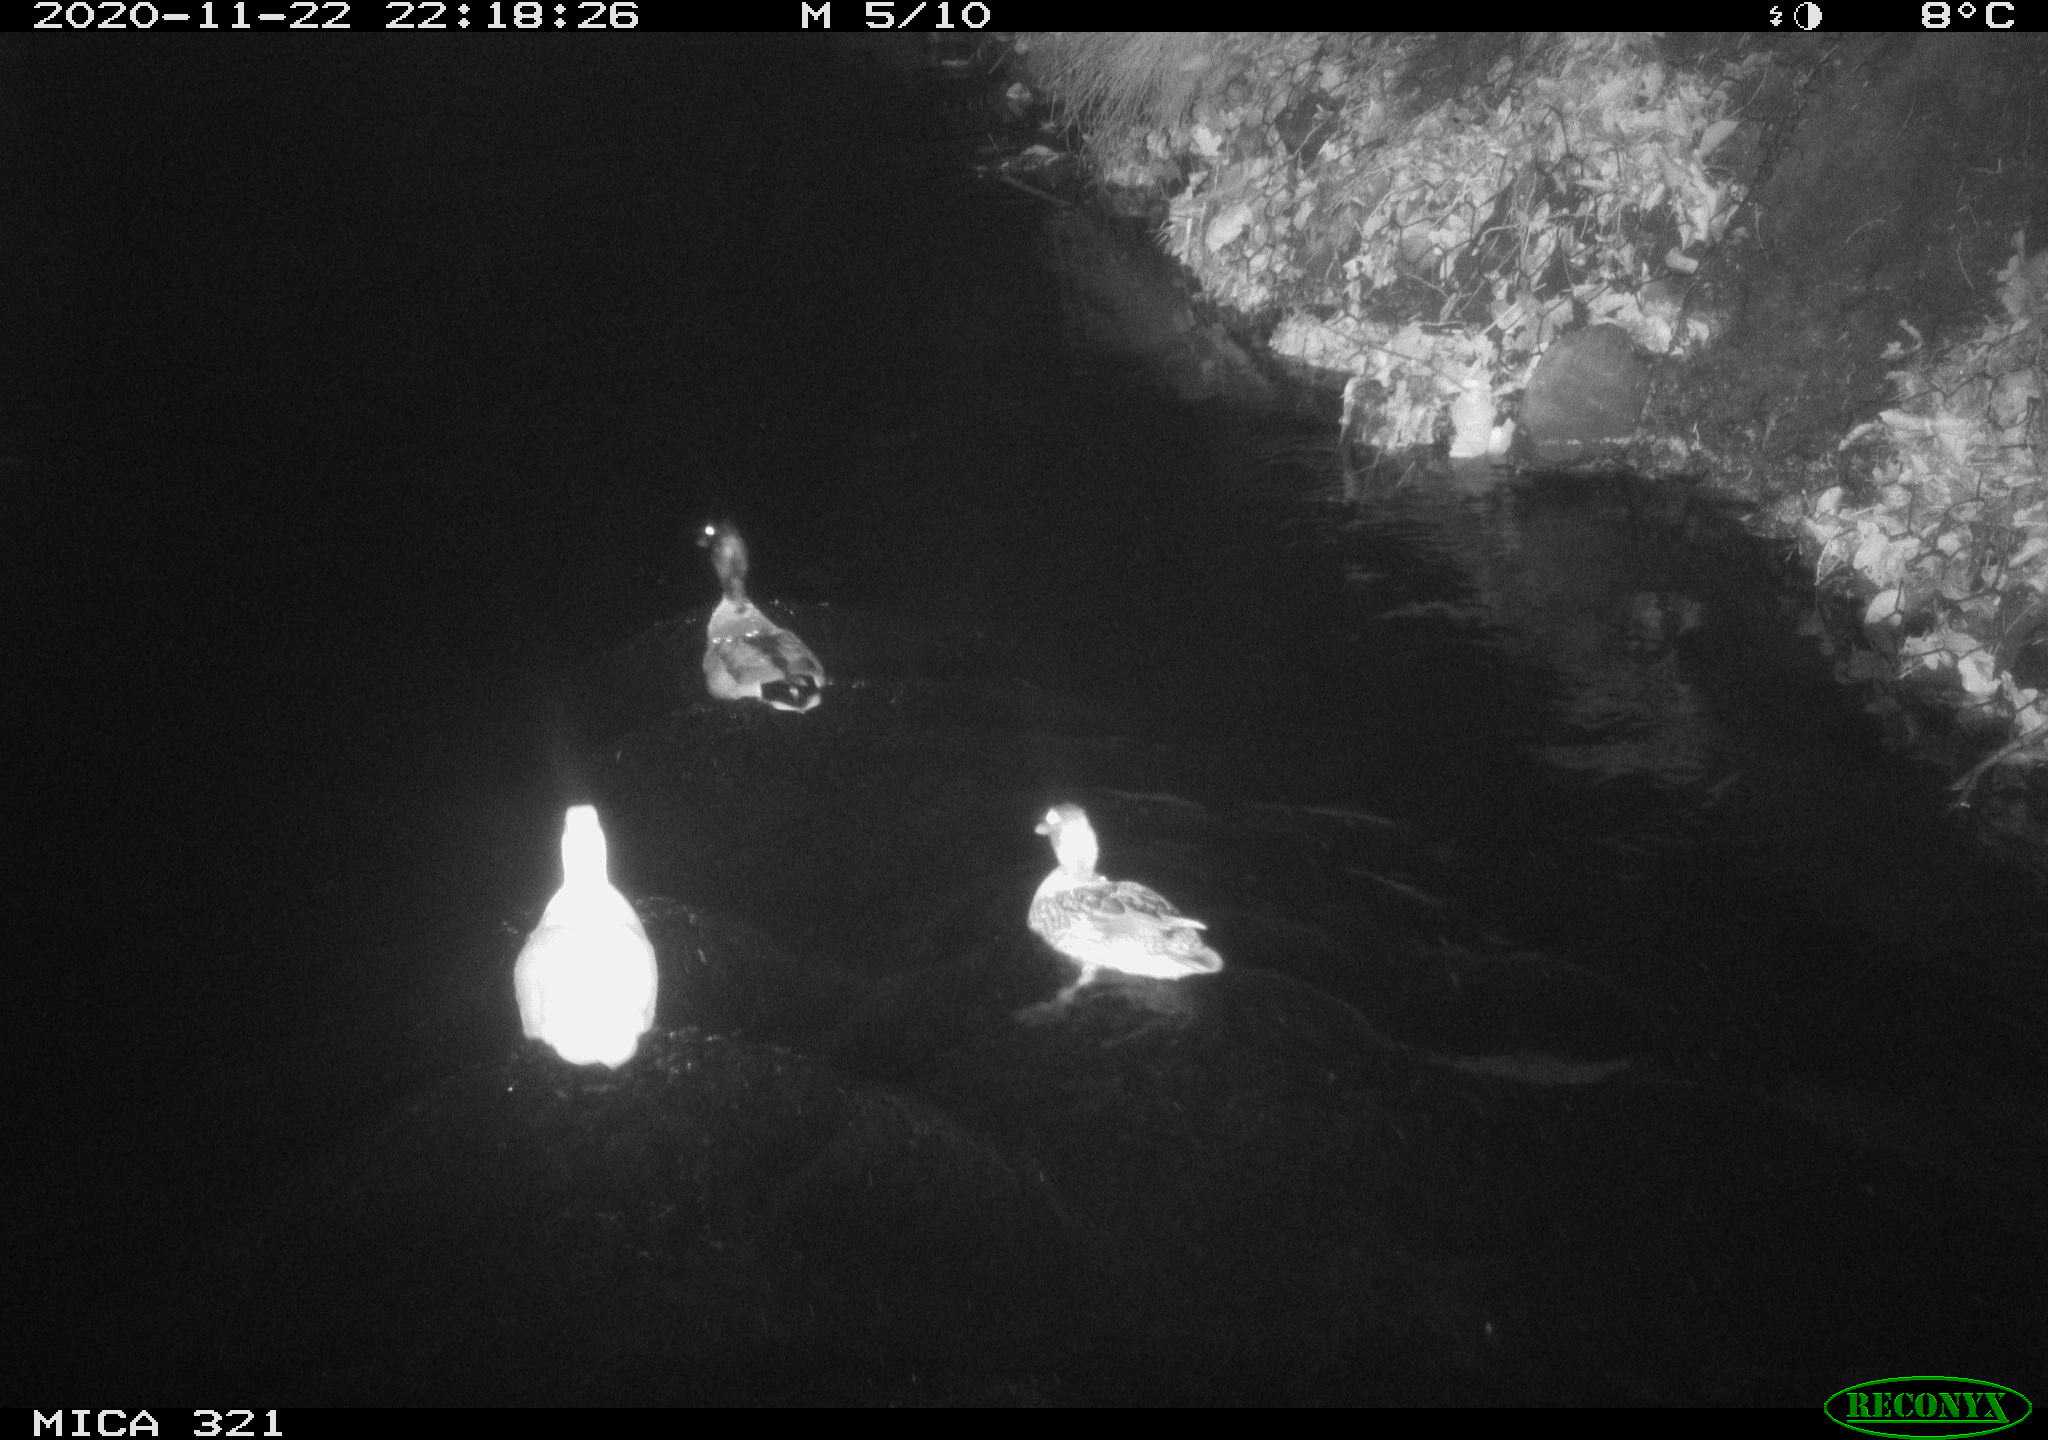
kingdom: Animalia
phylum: Chordata
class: Aves
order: Anseriformes
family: Anatidae
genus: Anas
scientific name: Anas platyrhynchos
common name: Mallard
